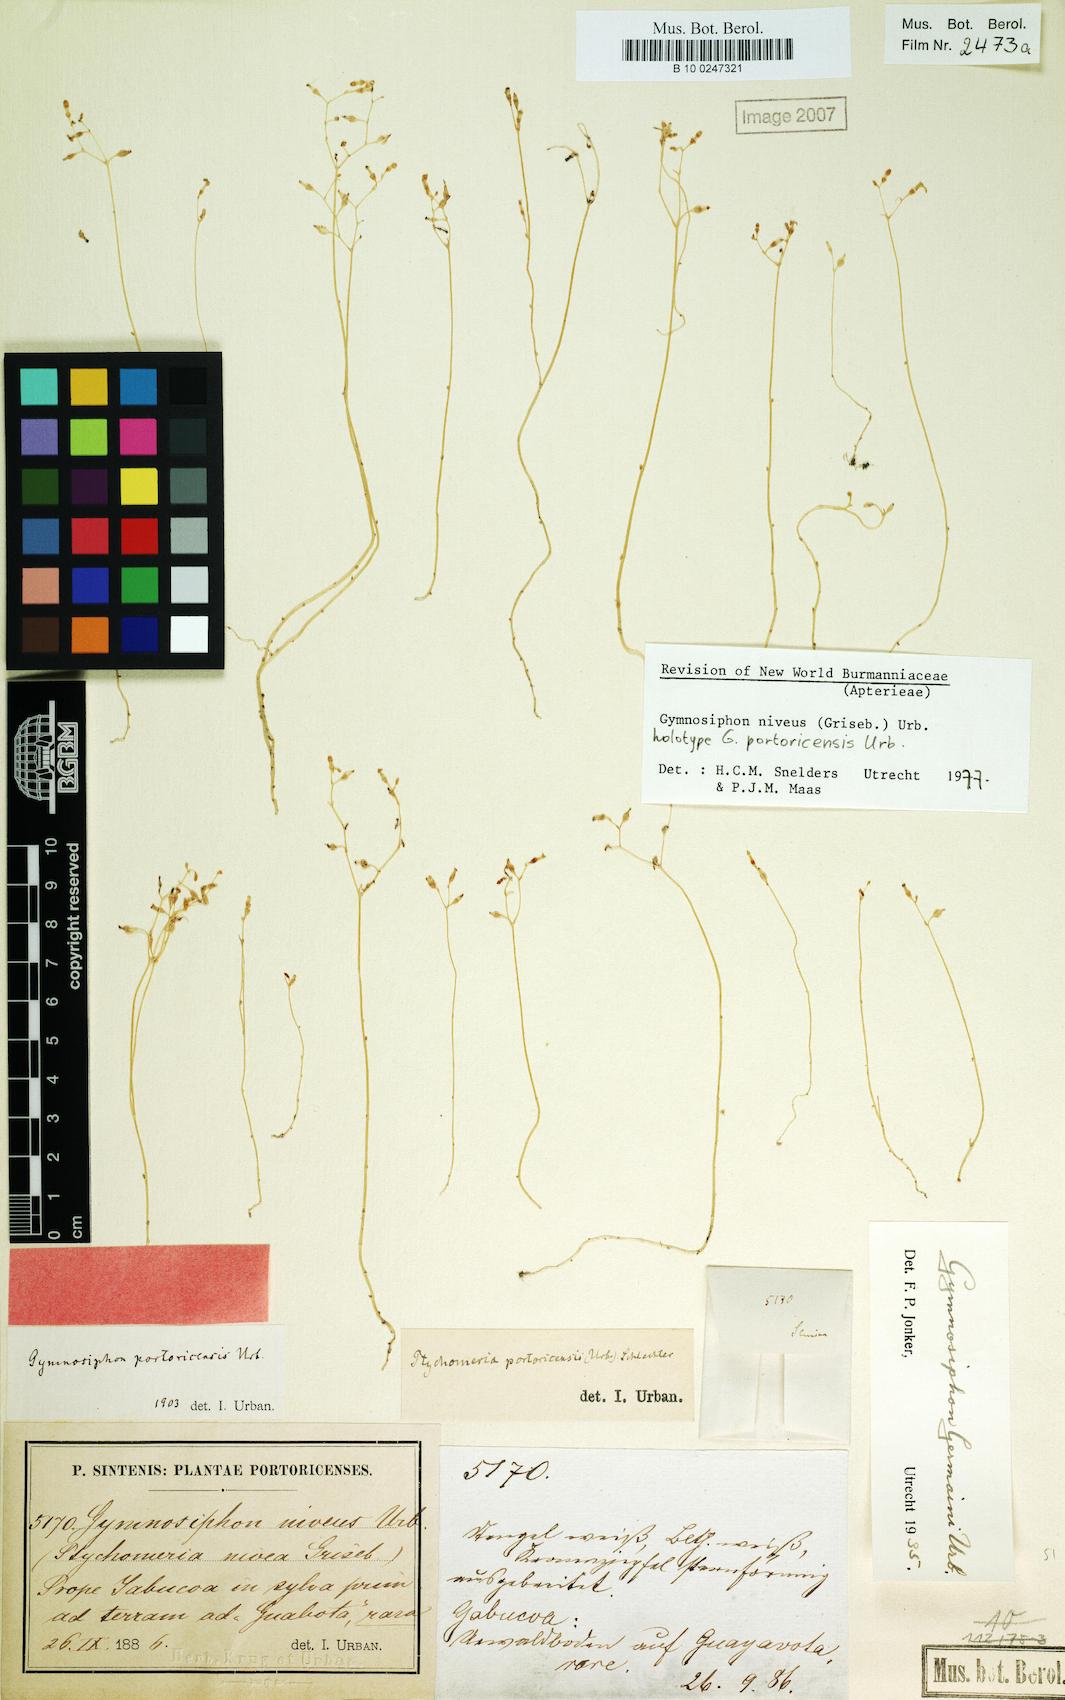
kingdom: Plantae
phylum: Tracheophyta
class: Liliopsida
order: Dioscoreales
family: Burmanniaceae
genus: Gymnosiphon
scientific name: Gymnosiphon niveus
